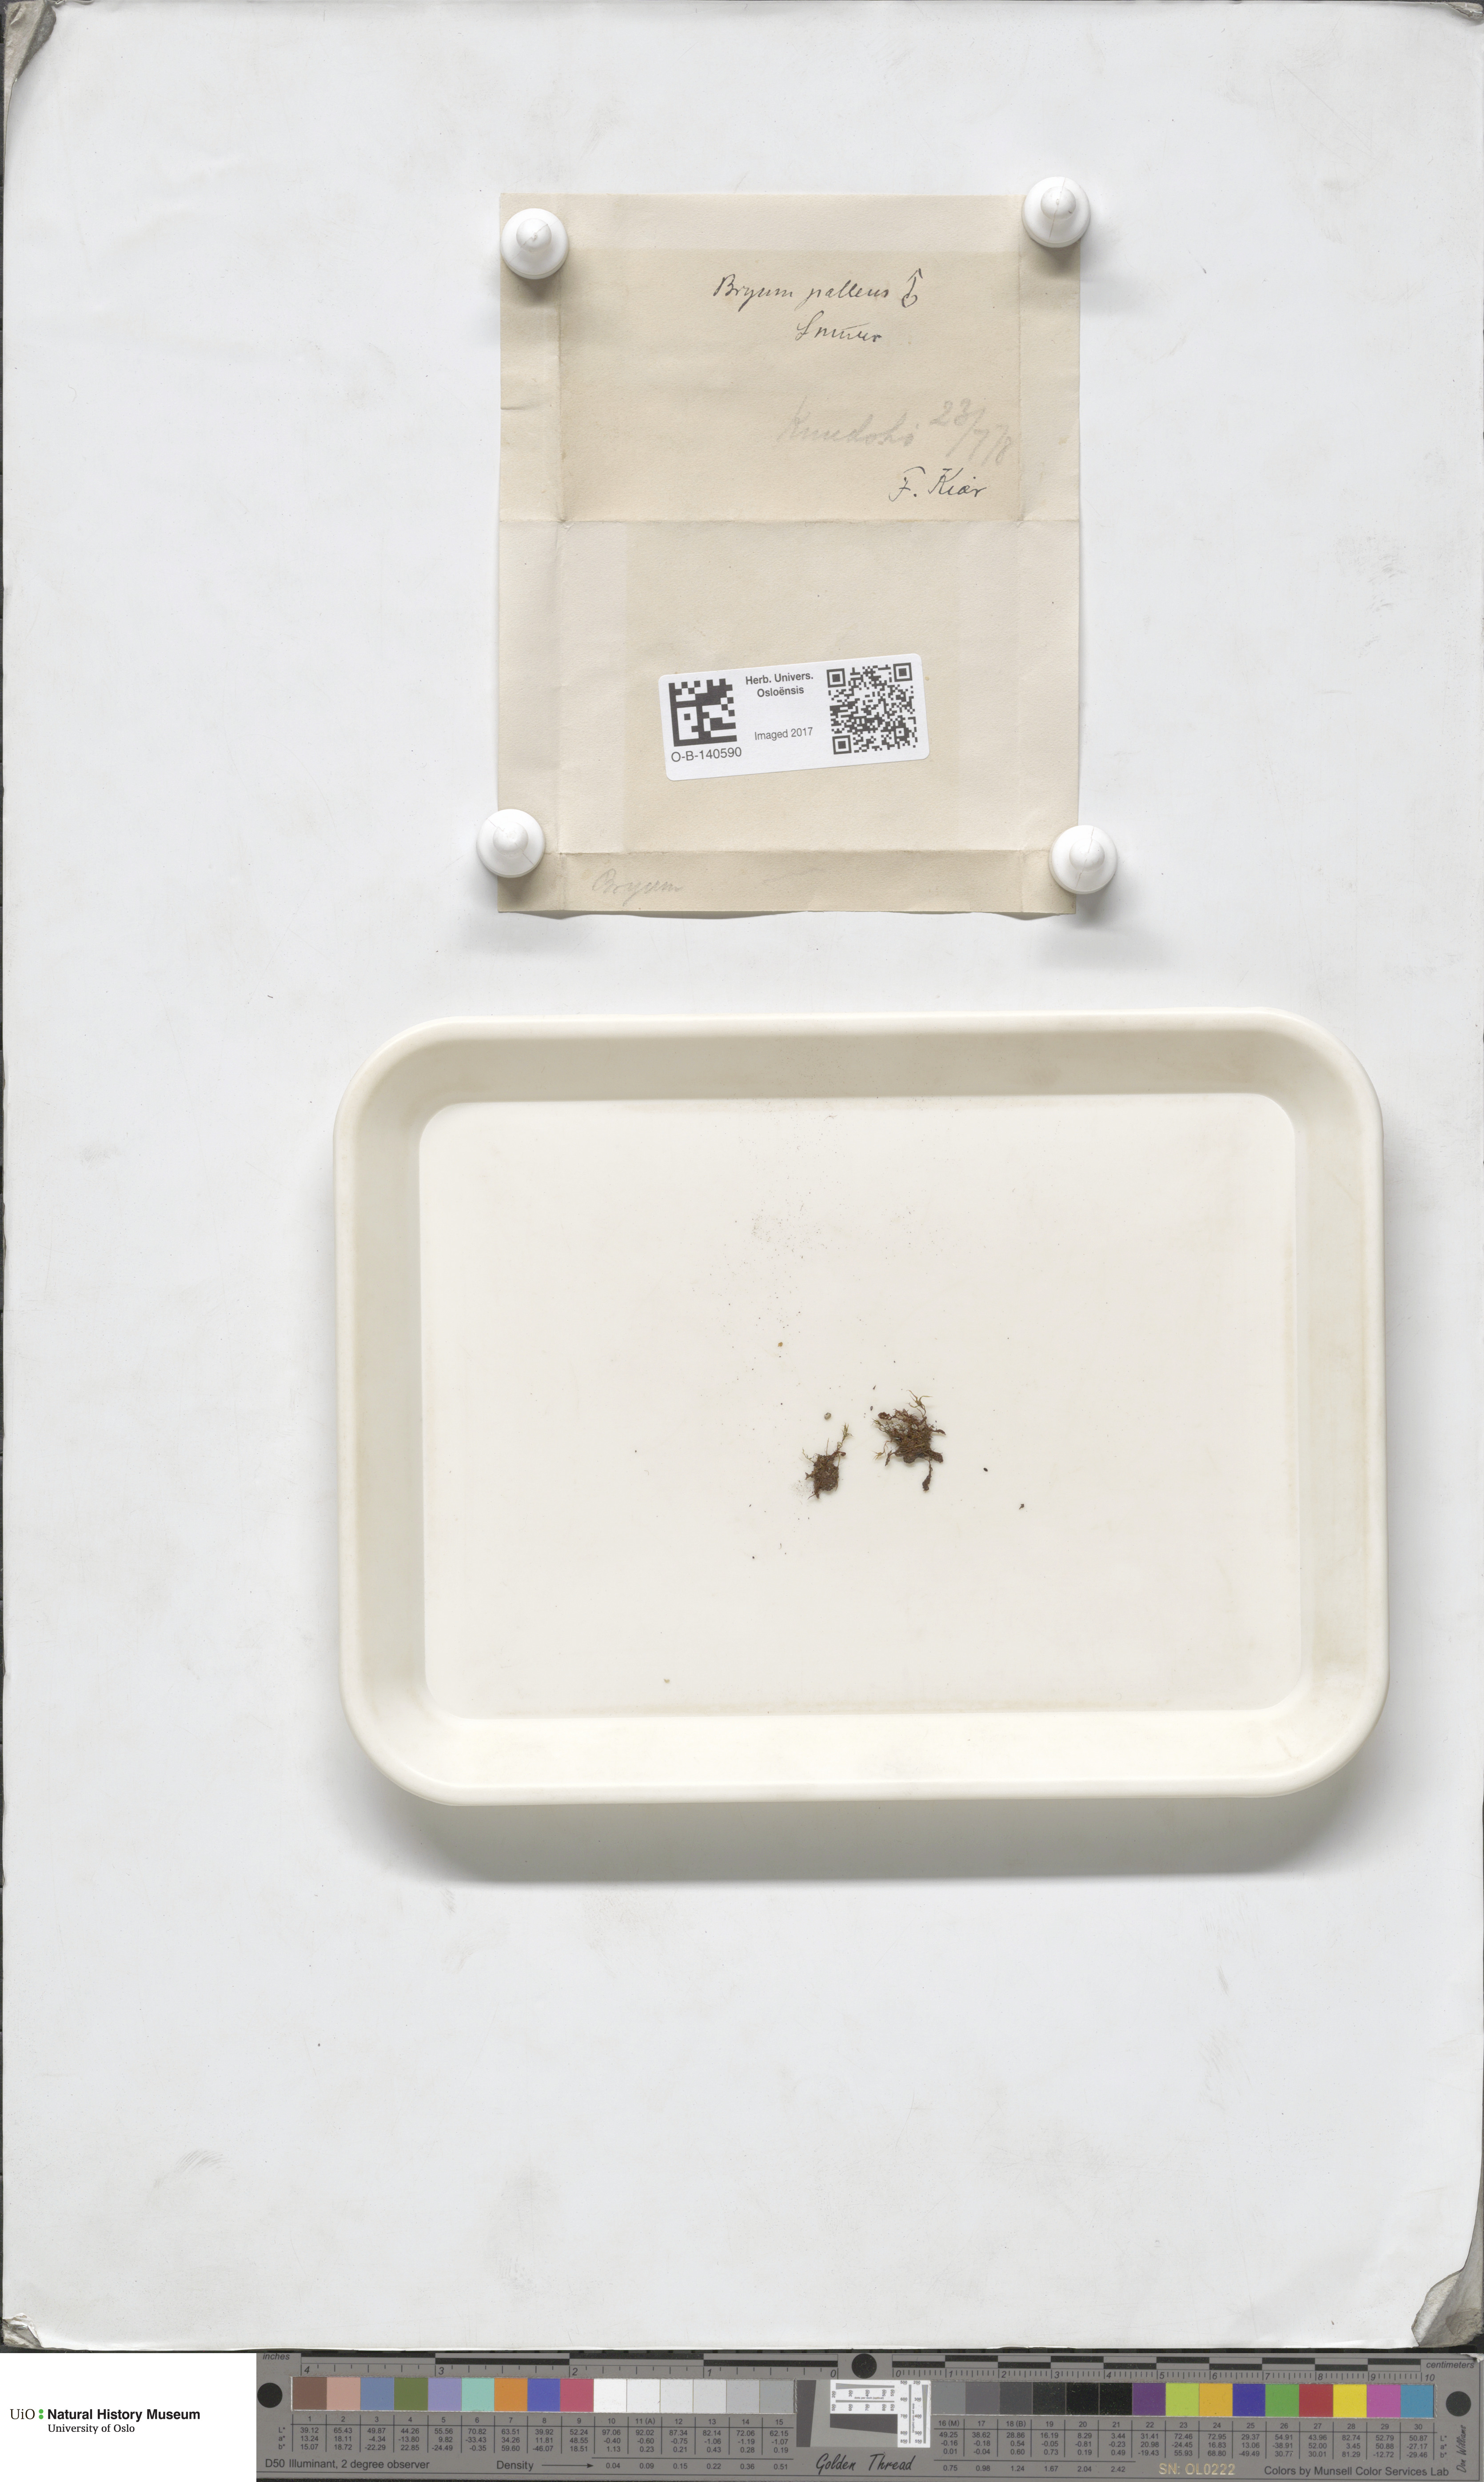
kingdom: Plantae
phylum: Bryophyta
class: Bryopsida
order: Bryales
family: Bryaceae
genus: Ptychostomum
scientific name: Ptychostomum pallens
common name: Pale thread-moss
